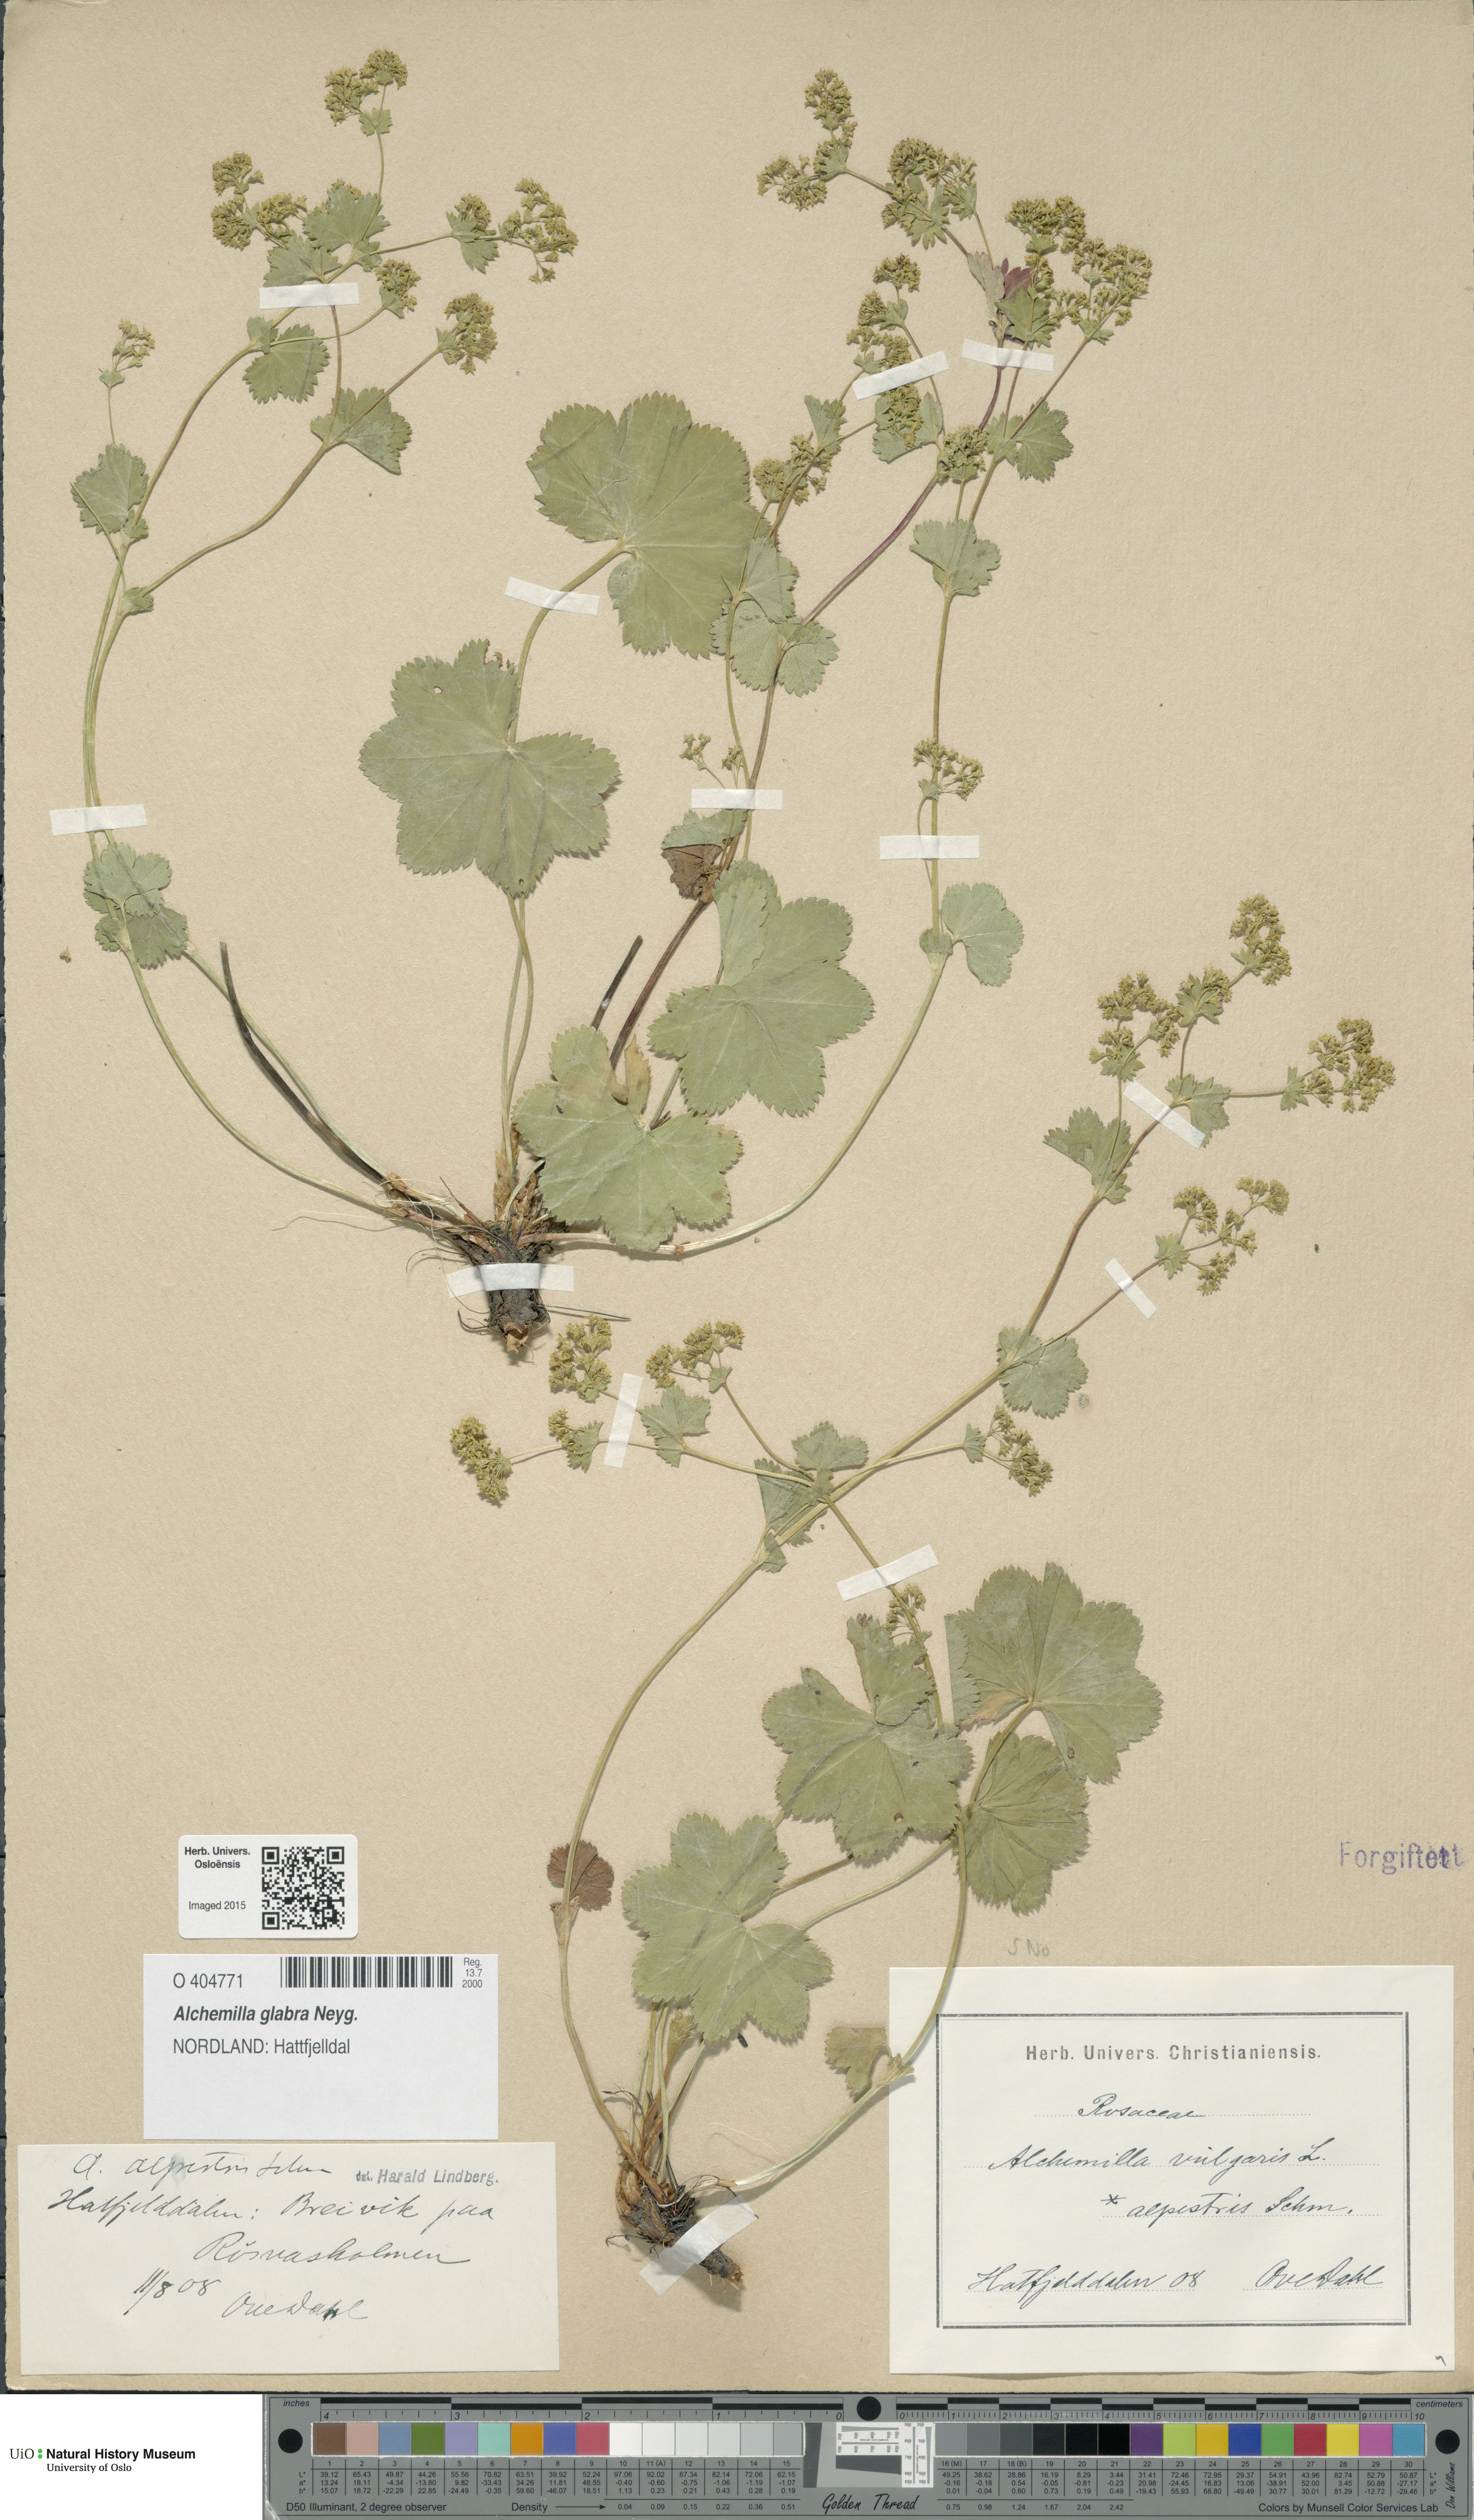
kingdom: Plantae
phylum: Tracheophyta
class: Magnoliopsida
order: Rosales
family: Rosaceae
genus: Alchemilla
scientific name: Alchemilla glabra
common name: Smooth lady's-mantle
